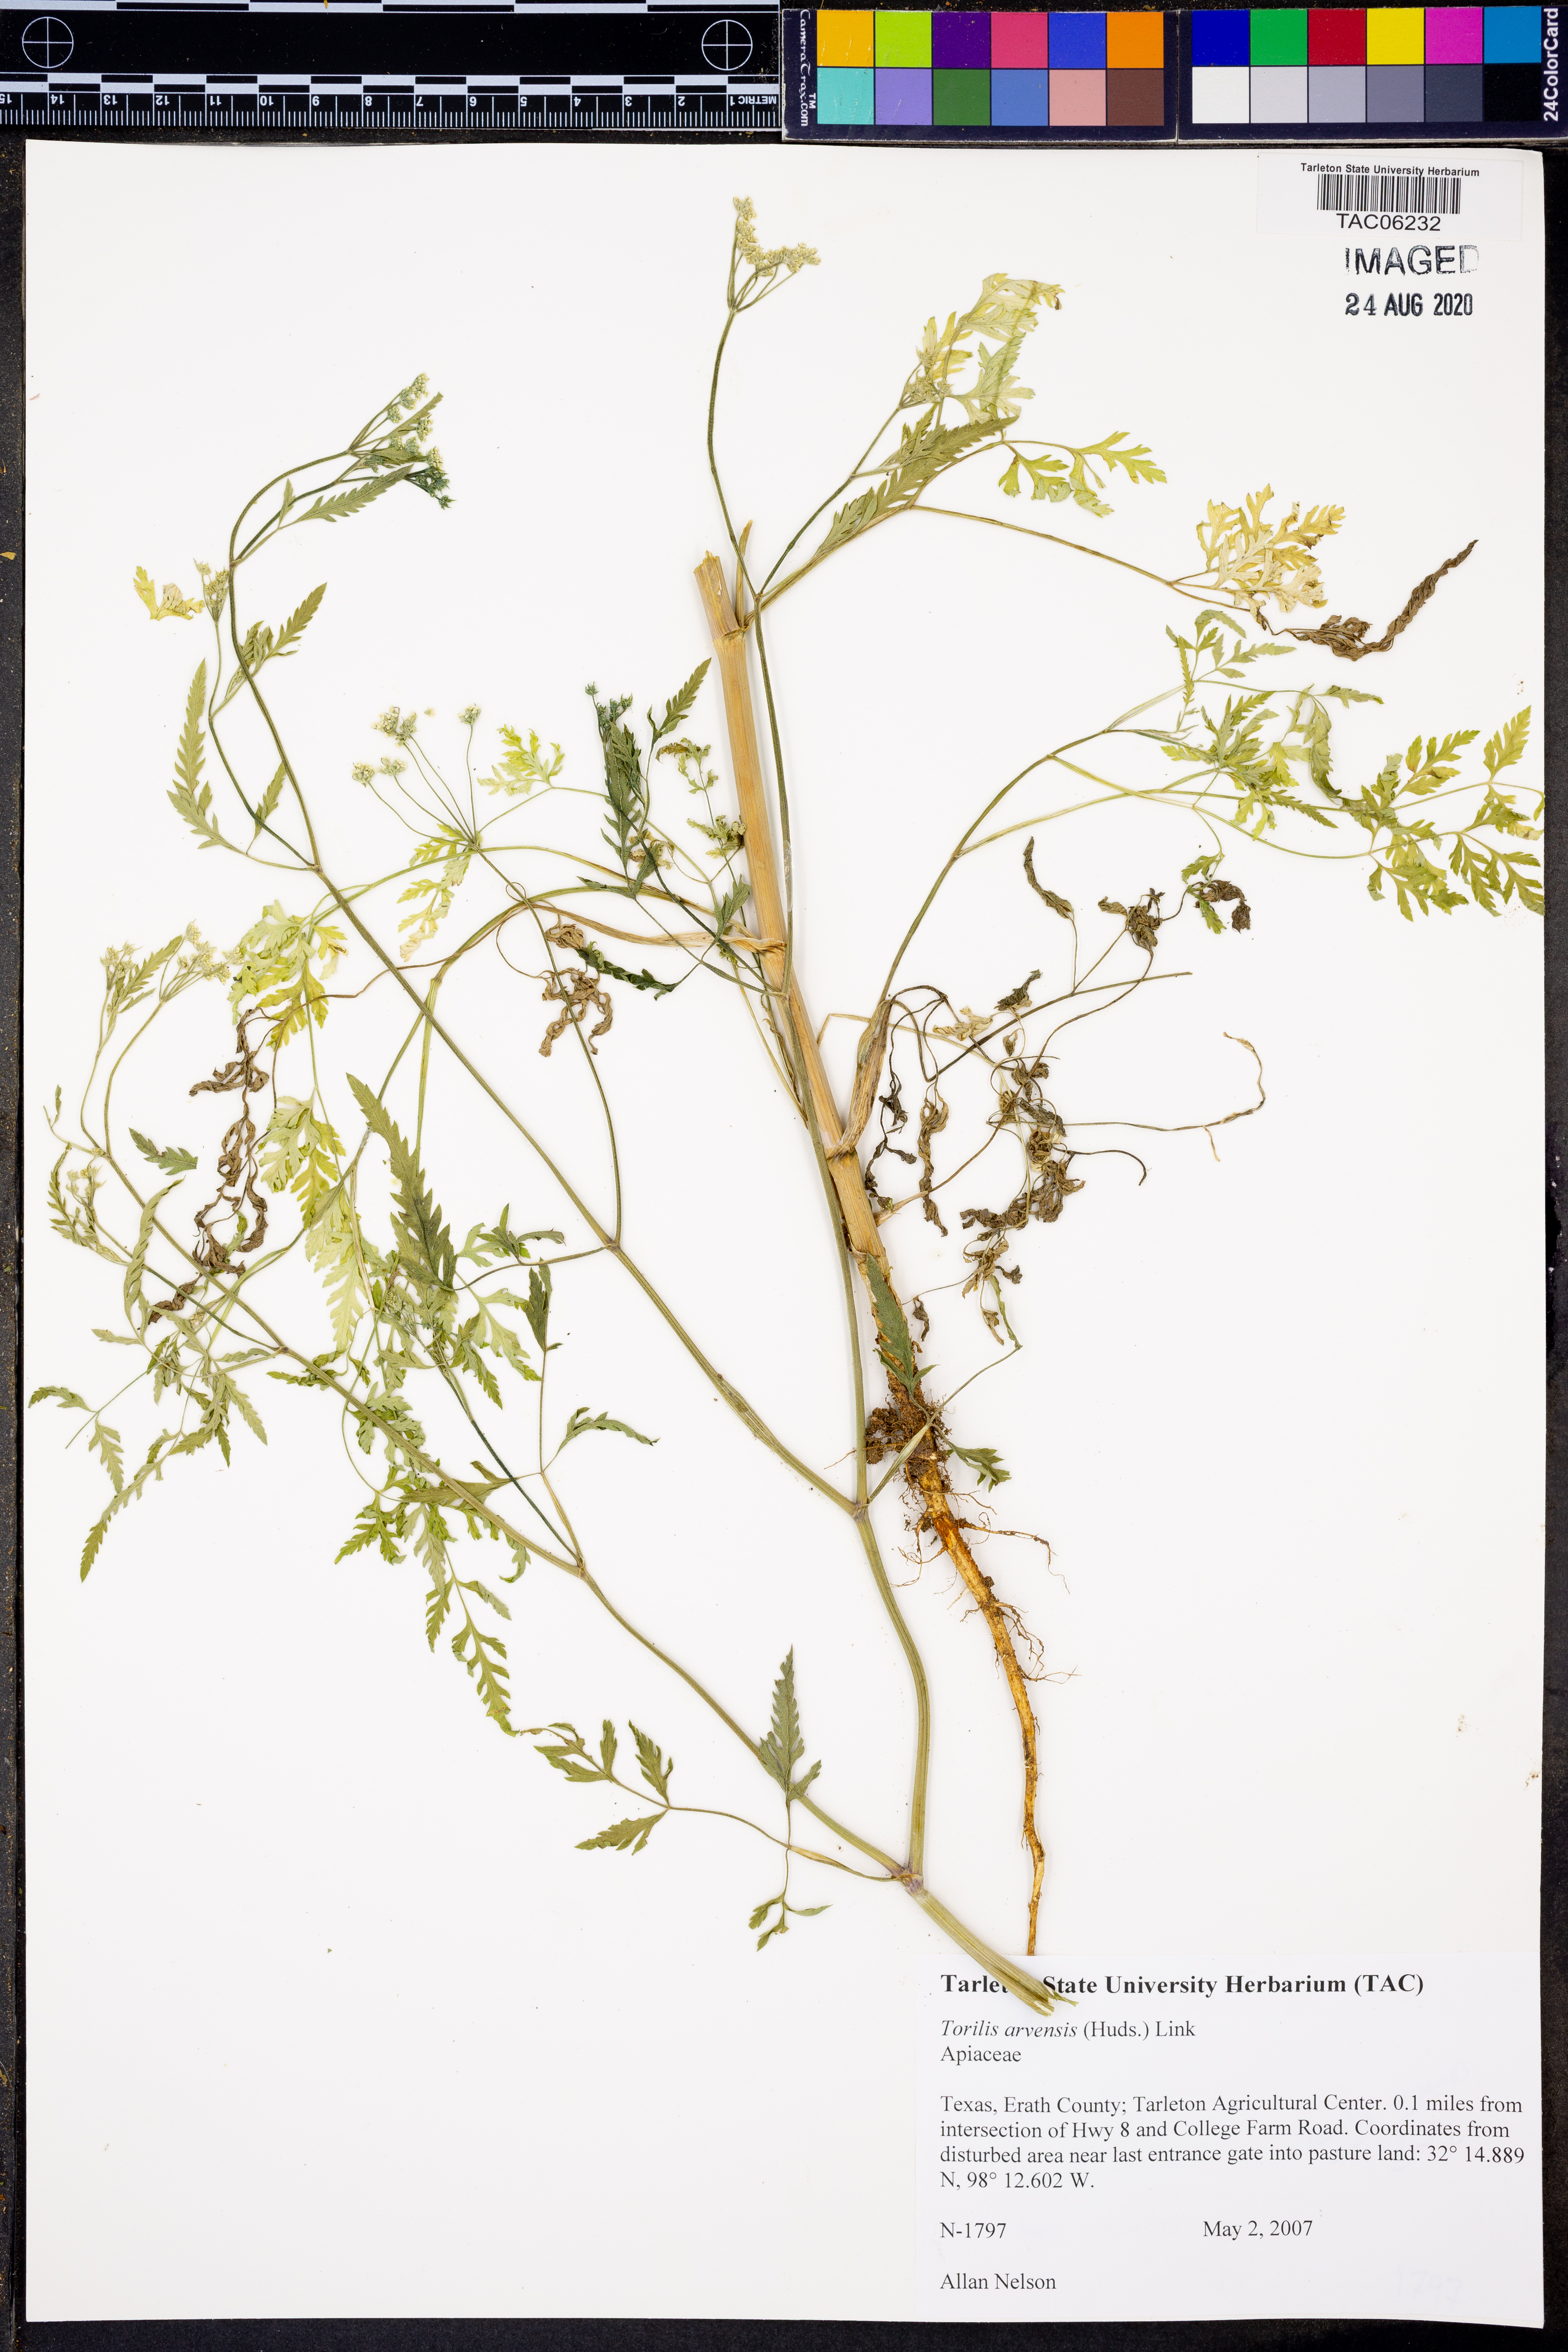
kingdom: Plantae
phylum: Tracheophyta
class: Magnoliopsida
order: Apiales
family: Apiaceae
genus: Torilis
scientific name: Torilis arvensis
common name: Spreading hedge-parsley
